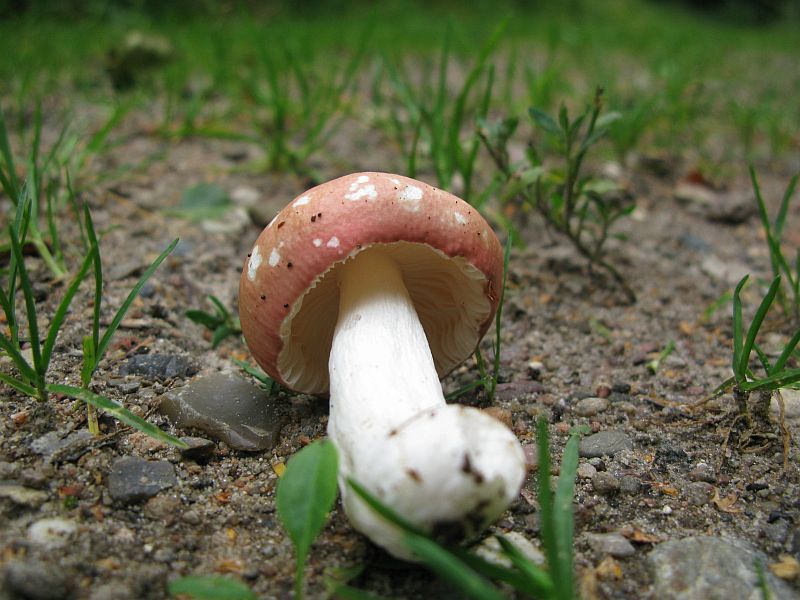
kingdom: Fungi
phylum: Basidiomycota
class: Agaricomycetes
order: Russulales
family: Russulaceae
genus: Russula
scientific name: Russula
